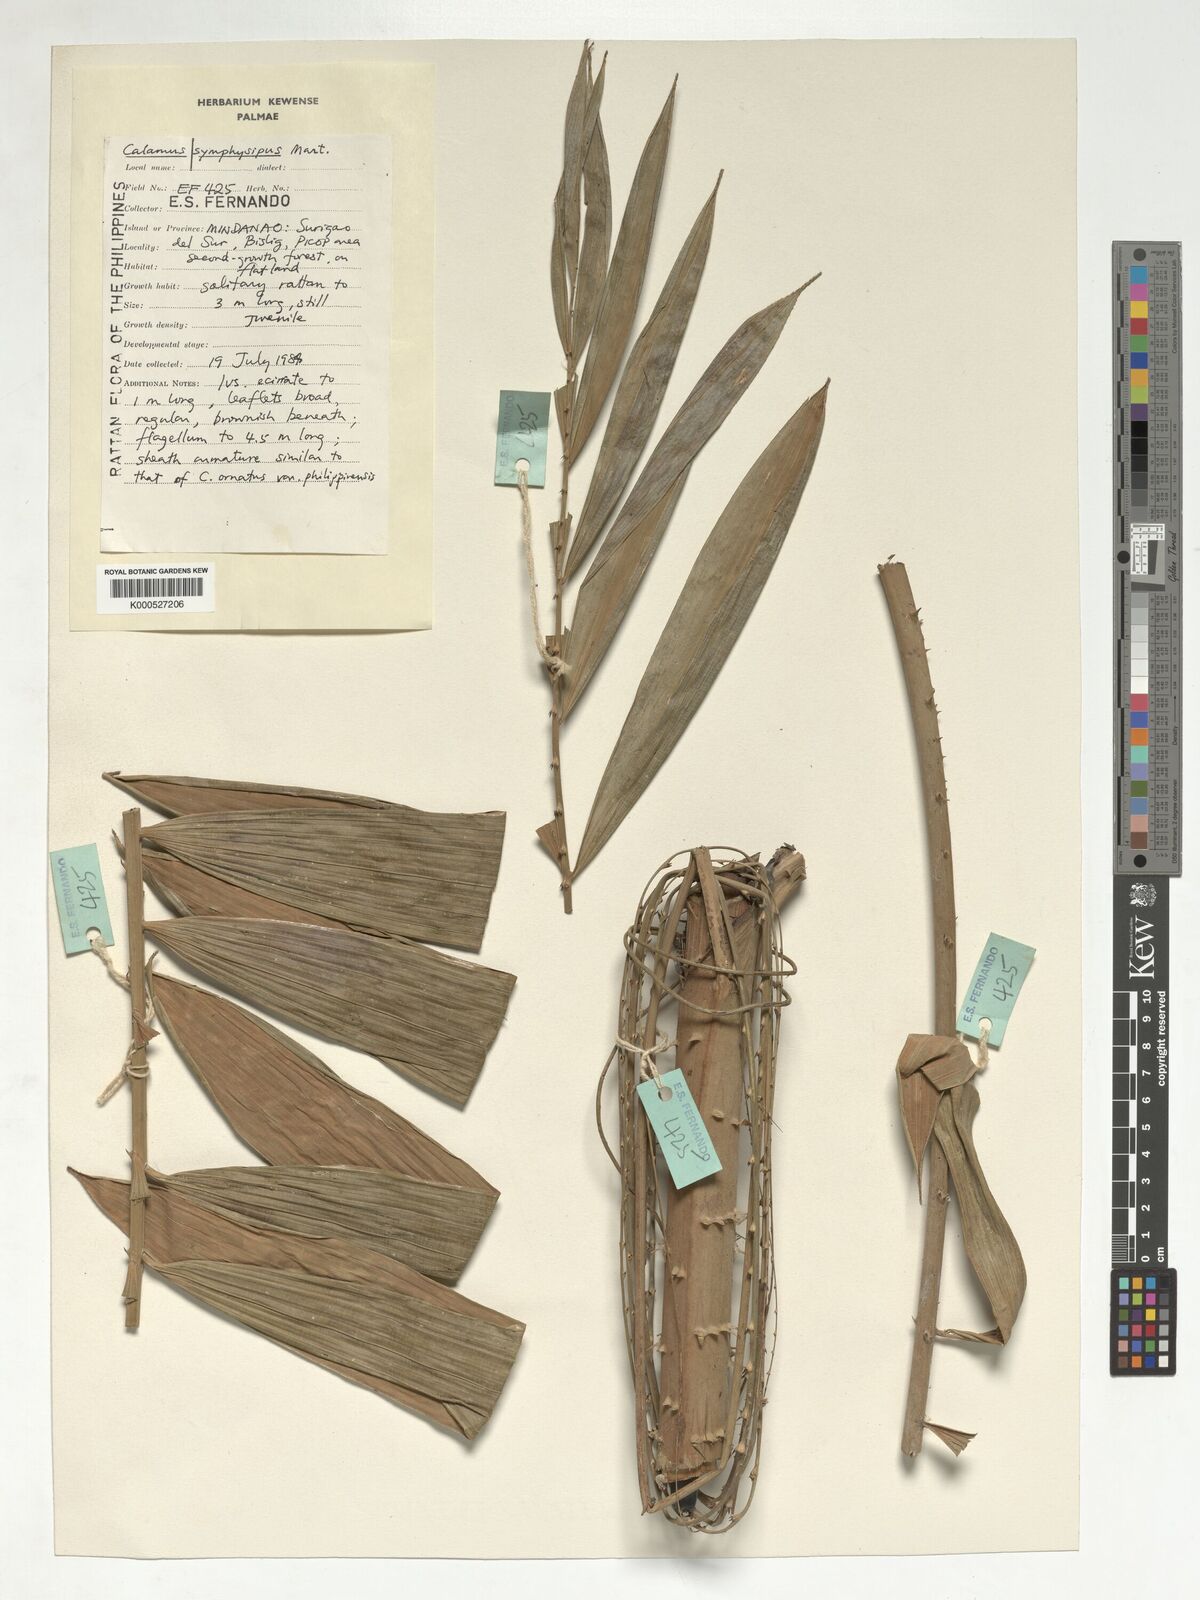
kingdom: Plantae
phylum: Tracheophyta
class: Liliopsida
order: Arecales
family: Arecaceae
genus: Calamus
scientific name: Calamus symphysipus
